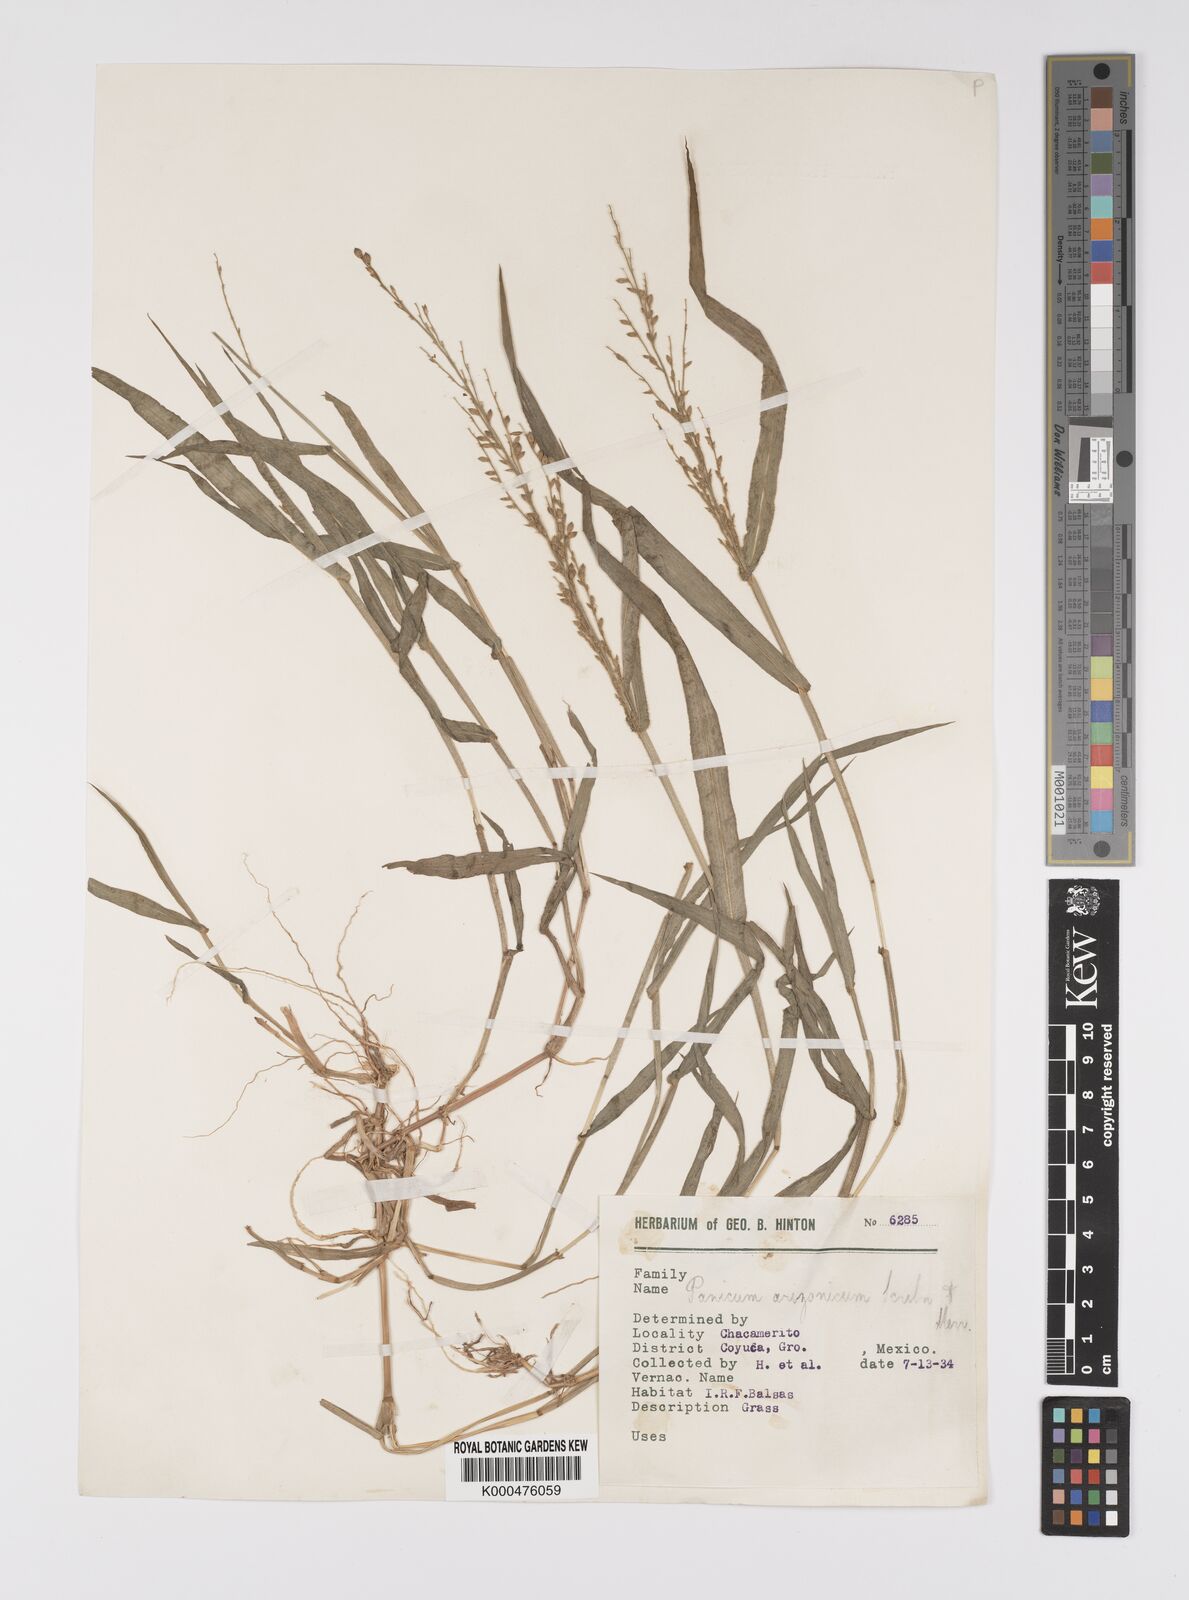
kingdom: Plantae
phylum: Tracheophyta
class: Liliopsida
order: Poales
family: Poaceae
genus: Urochloa
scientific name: Urochloa arizonica
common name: Arizona signal grass
